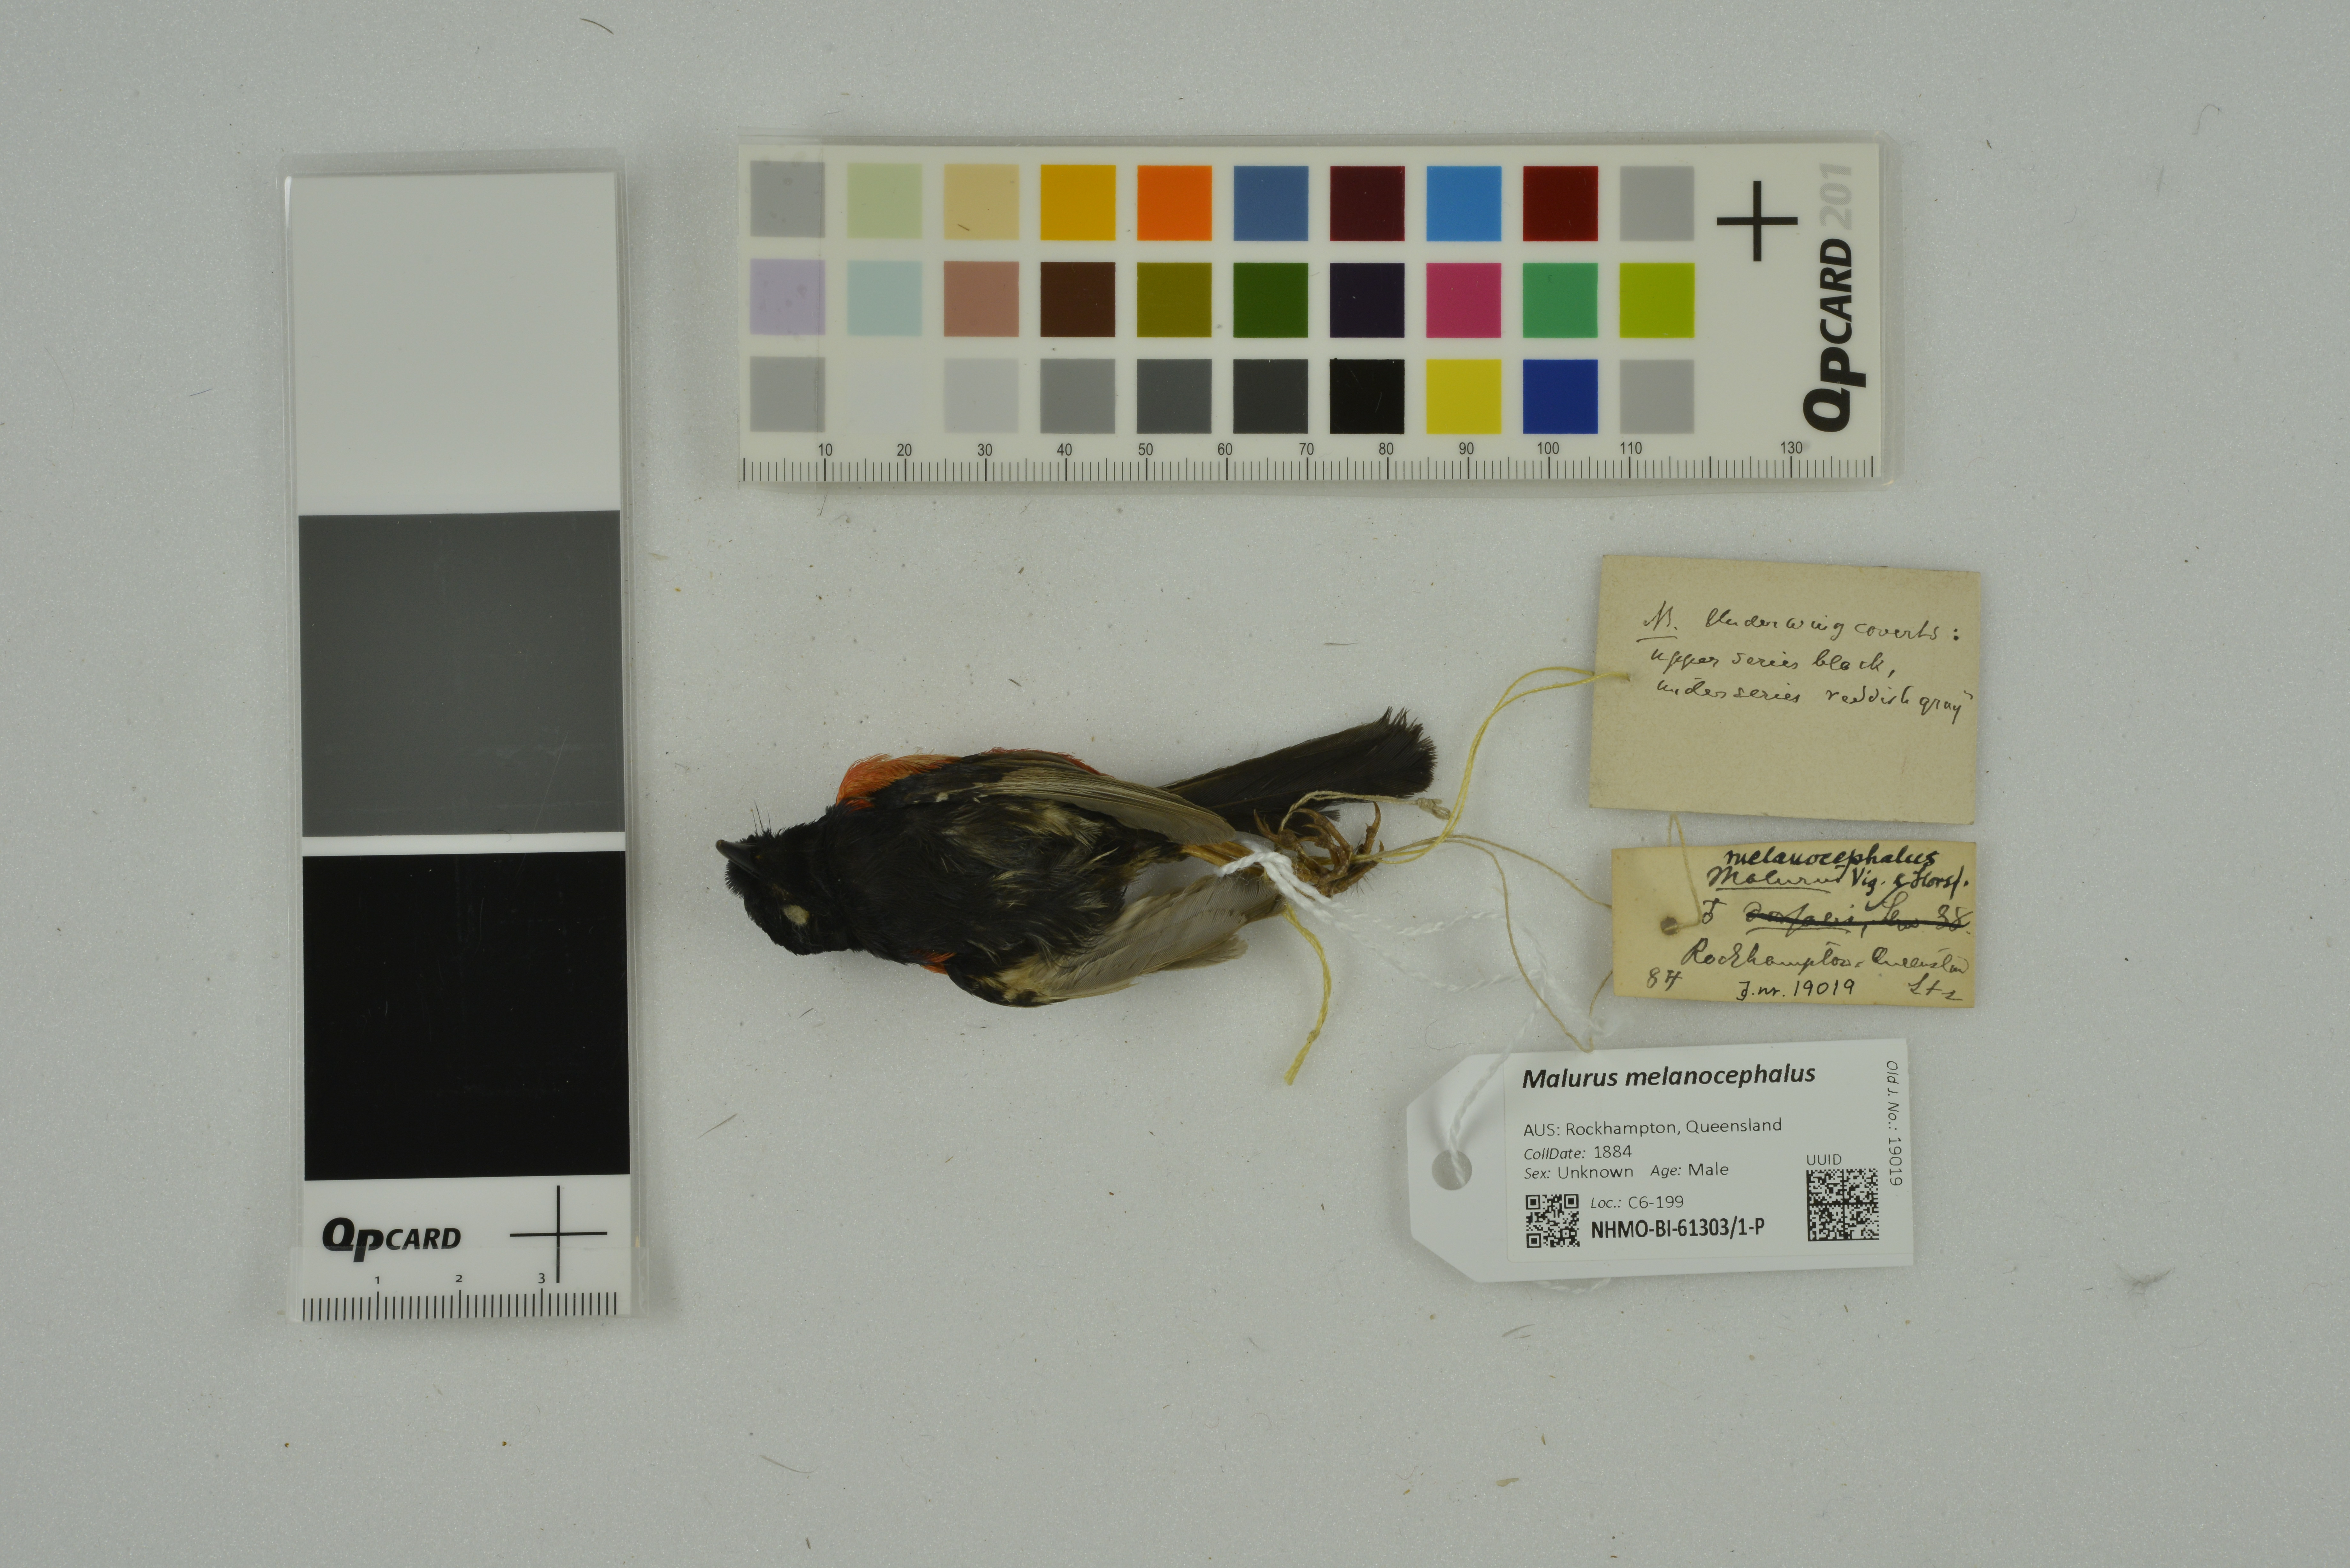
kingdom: Animalia
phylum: Chordata
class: Aves
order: Passeriformes
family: Maluridae
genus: Malurus
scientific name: Malurus melanocephalus
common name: Red-backed fairywren
